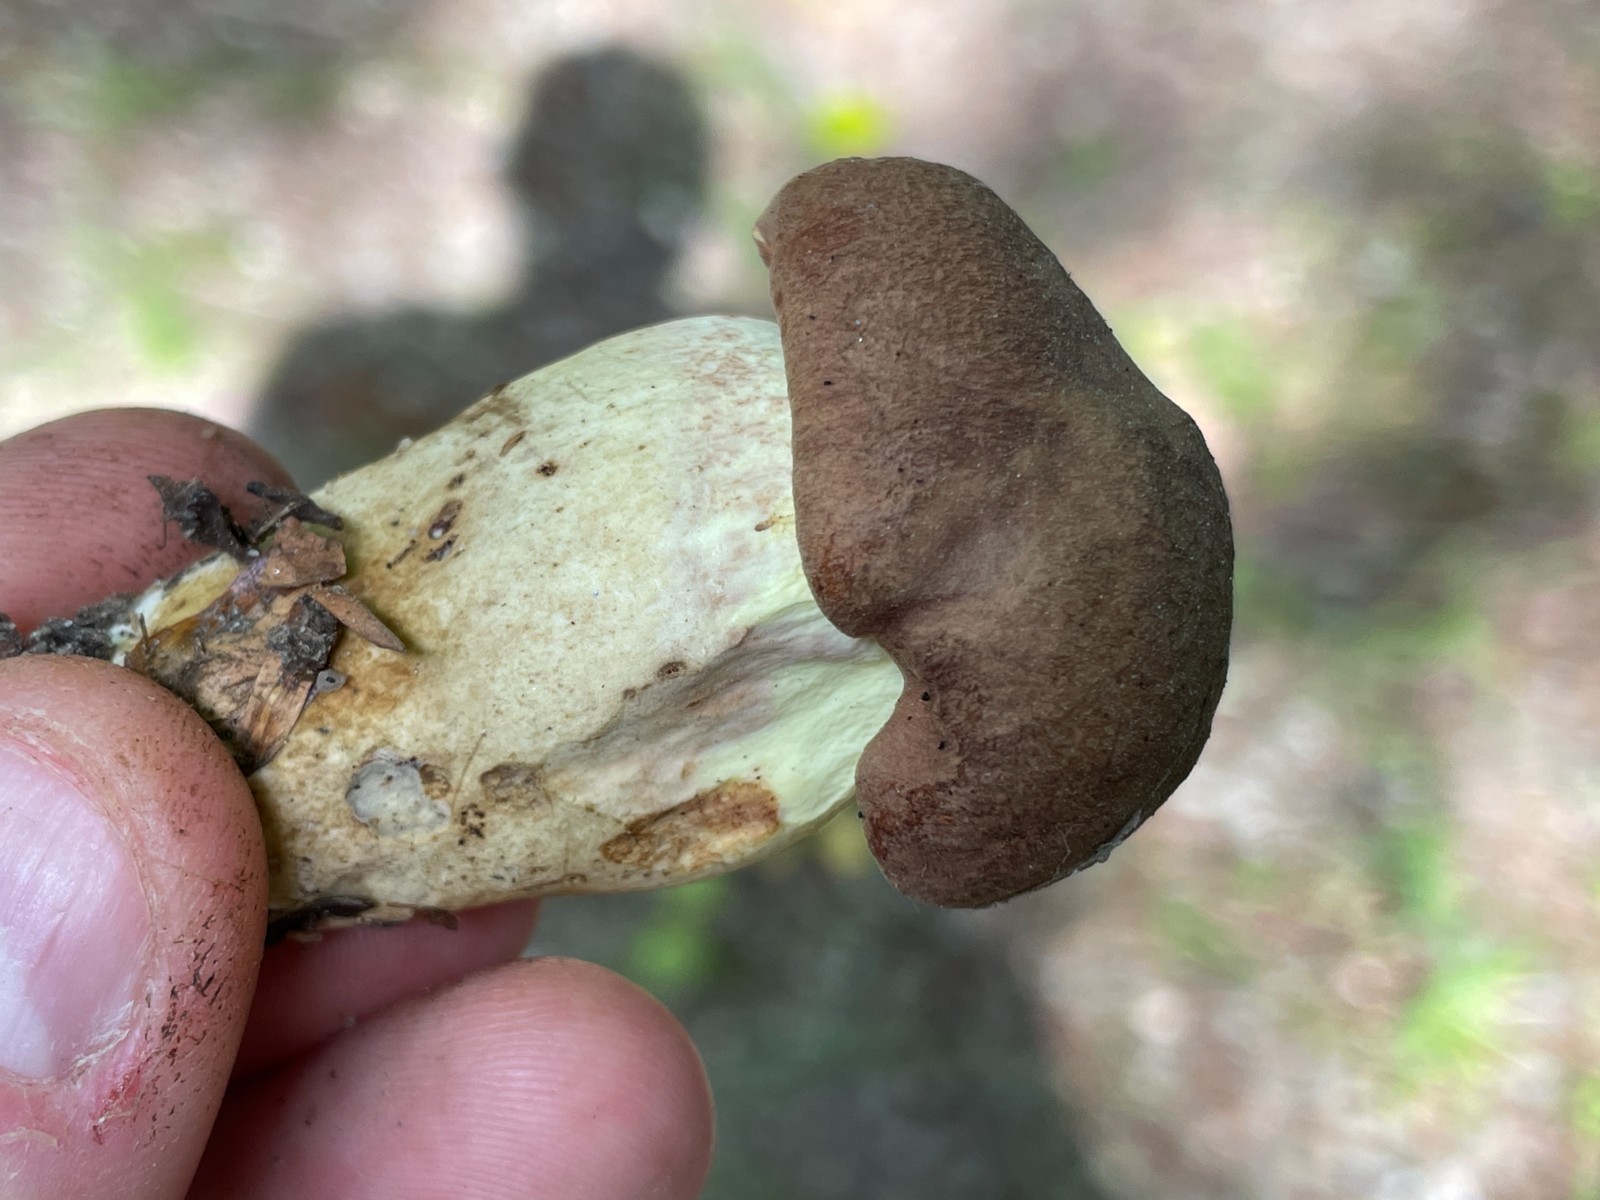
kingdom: Fungi
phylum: Basidiomycota
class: Agaricomycetes
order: Boletales
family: Boletaceae
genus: Butyriboletus
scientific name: Butyriboletus appendiculatus
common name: tenstokket rørhat
